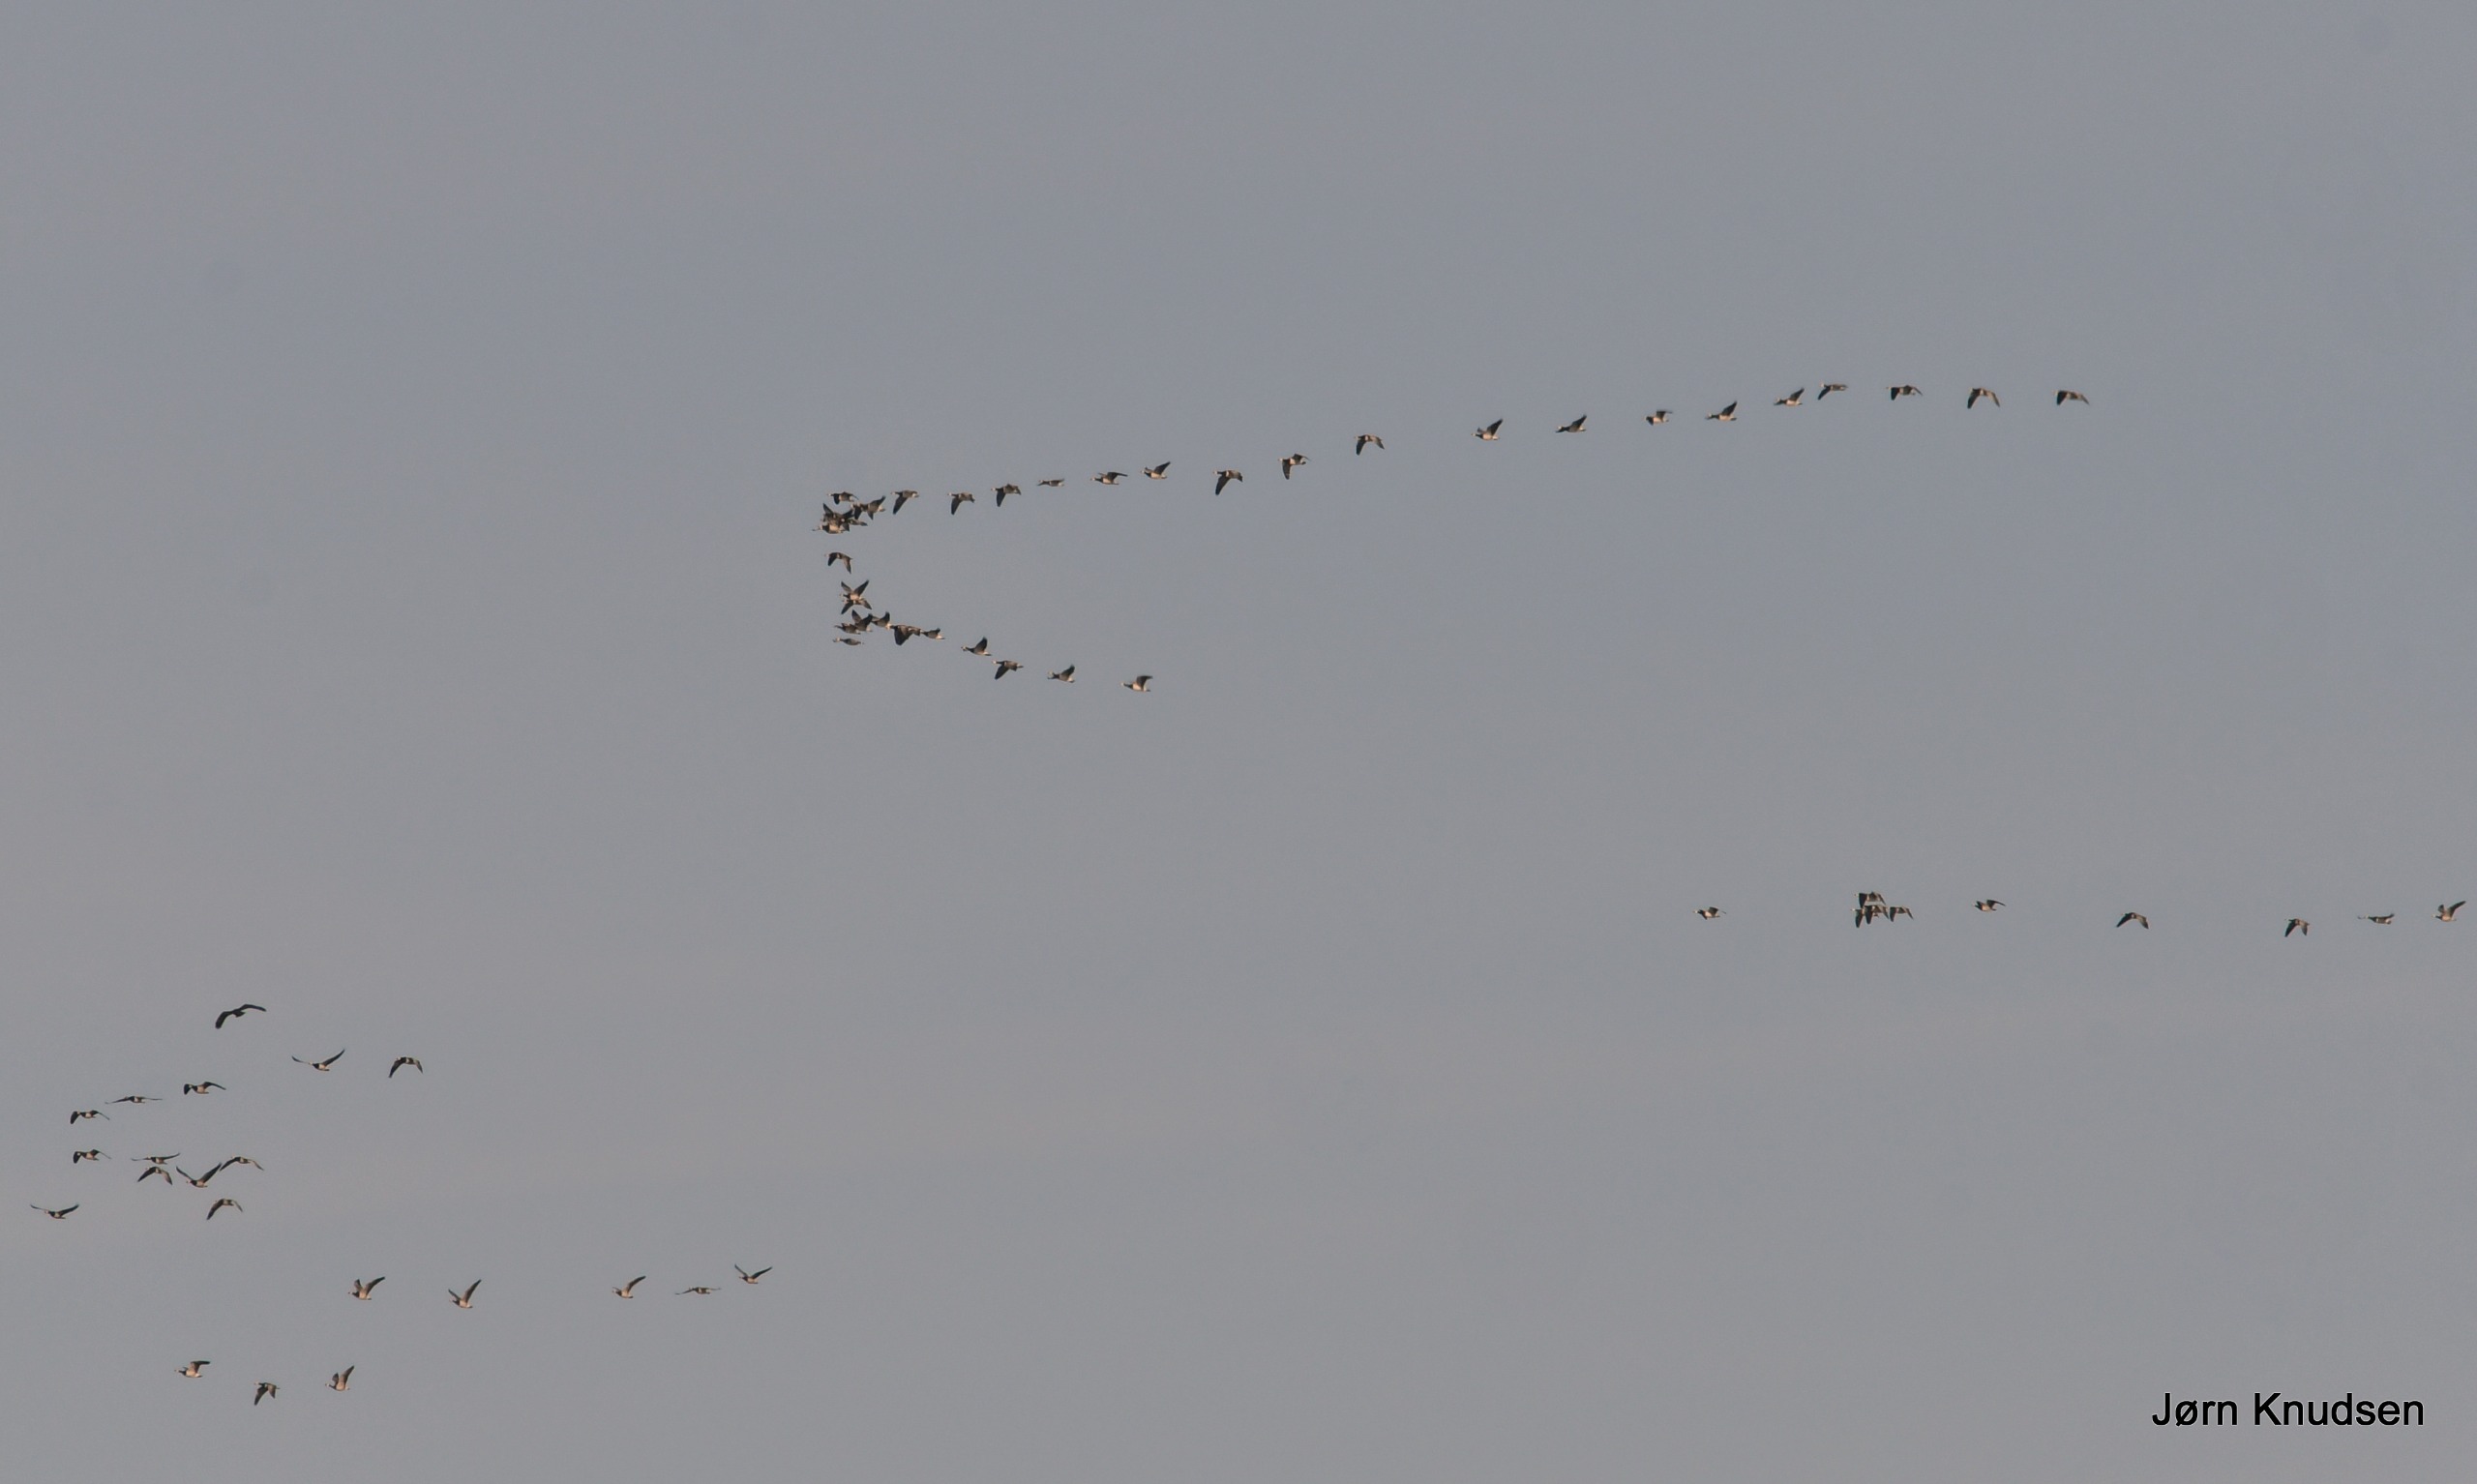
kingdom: Animalia
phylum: Chordata
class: Aves
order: Anseriformes
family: Anatidae
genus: Branta
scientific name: Branta leucopsis
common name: Bramgås
